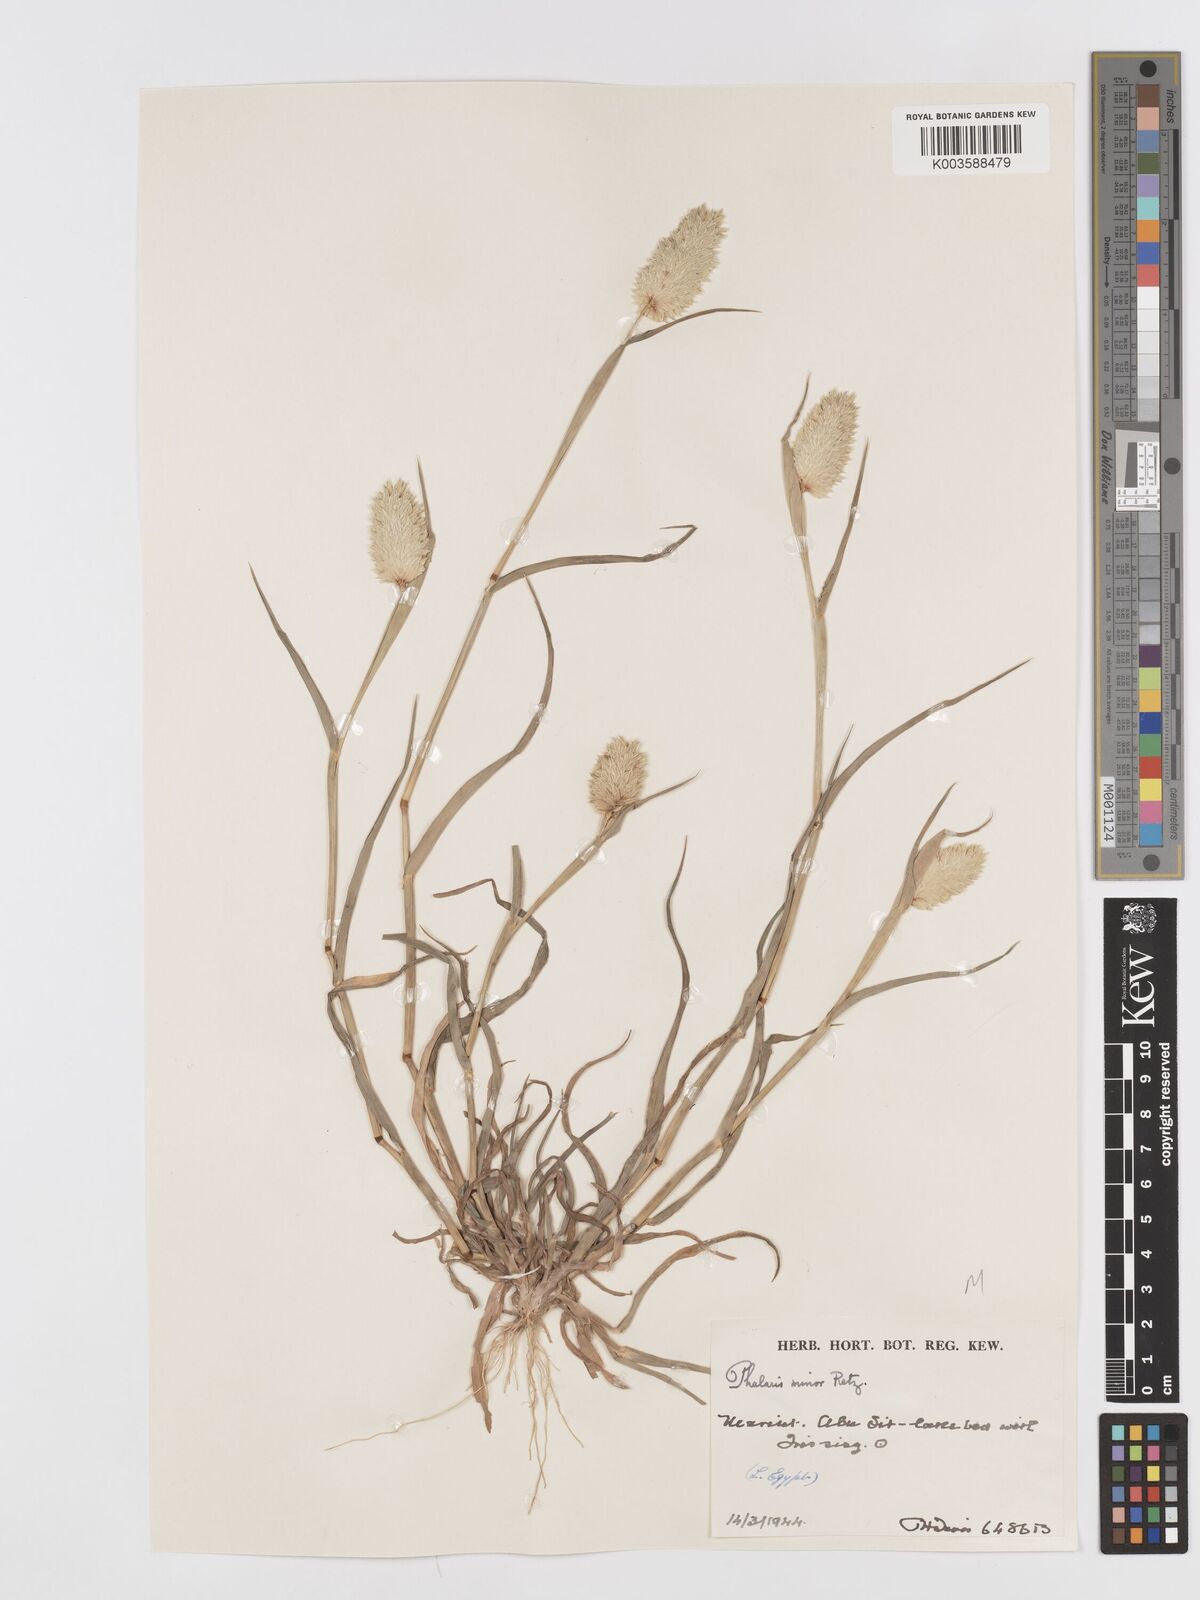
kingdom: Plantae
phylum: Tracheophyta
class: Liliopsida
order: Poales
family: Poaceae
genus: Phalaris
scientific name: Phalaris minor
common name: Littleseed canarygrass
